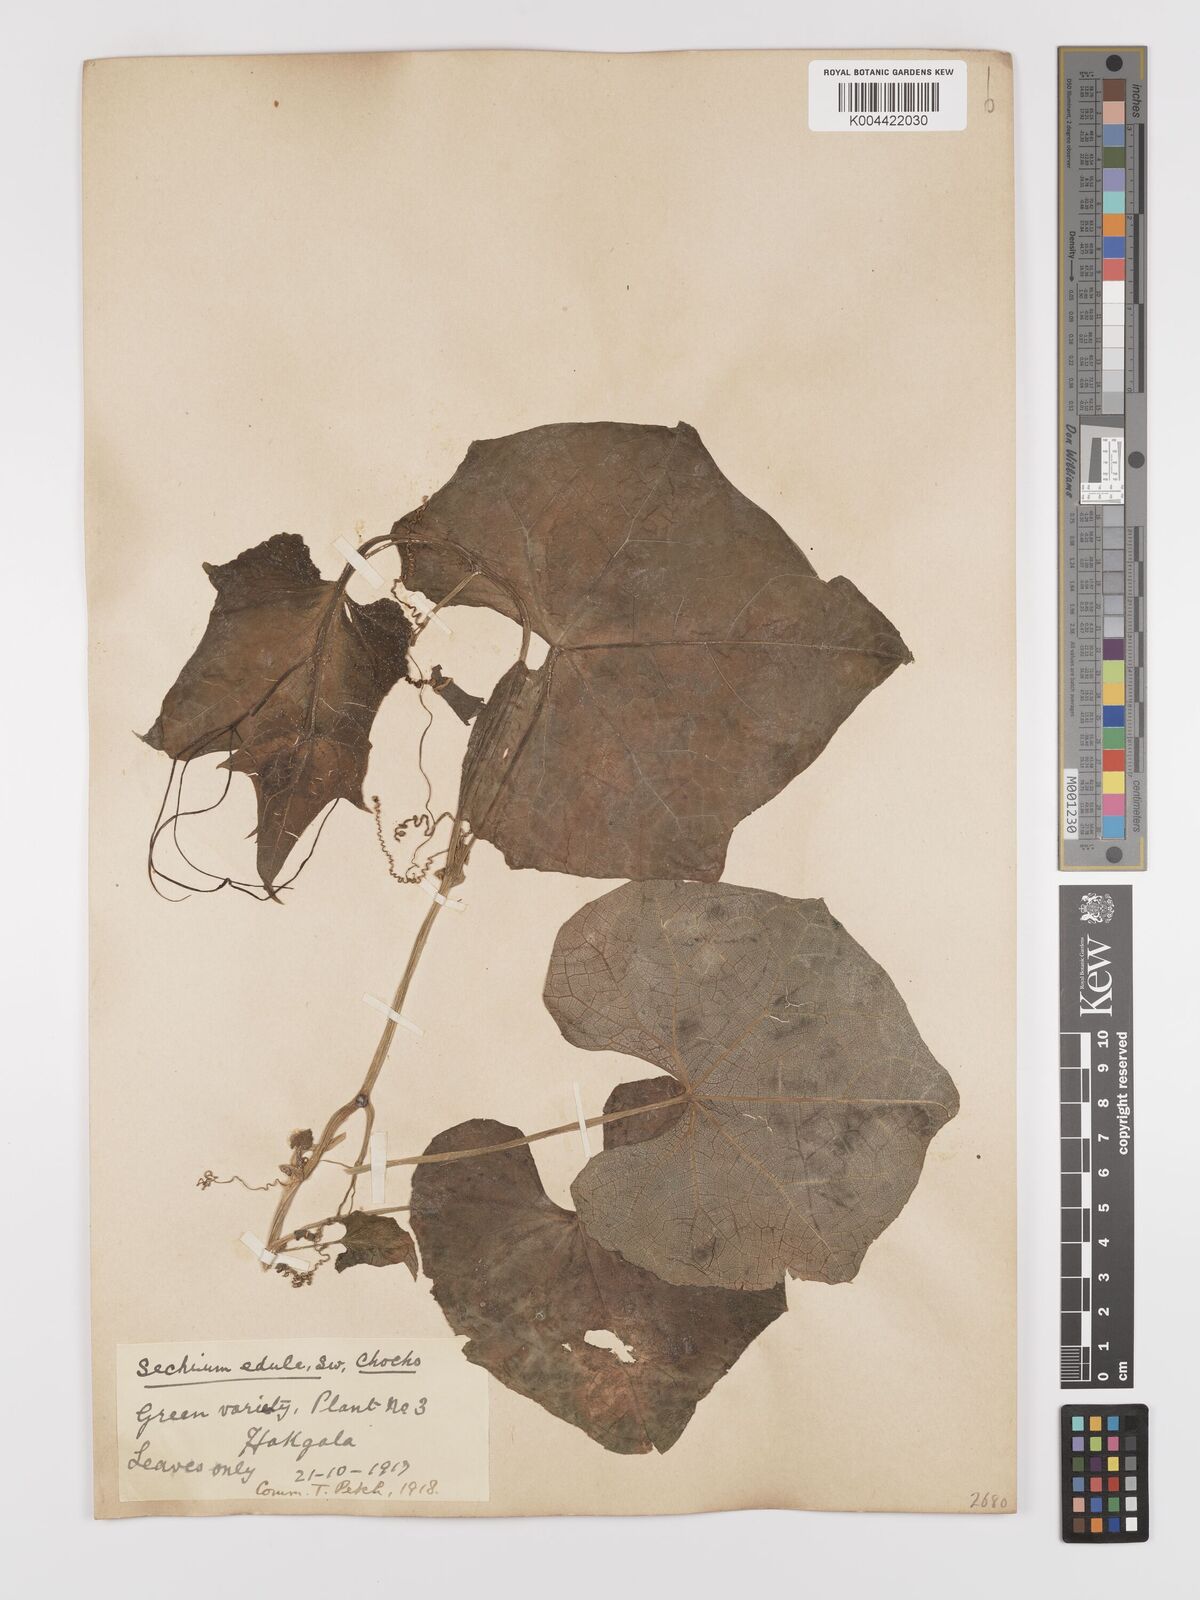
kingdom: Plantae
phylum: Tracheophyta
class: Magnoliopsida
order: Cucurbitales
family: Cucurbitaceae
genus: Sechium
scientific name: Sechium edule
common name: Chayote
